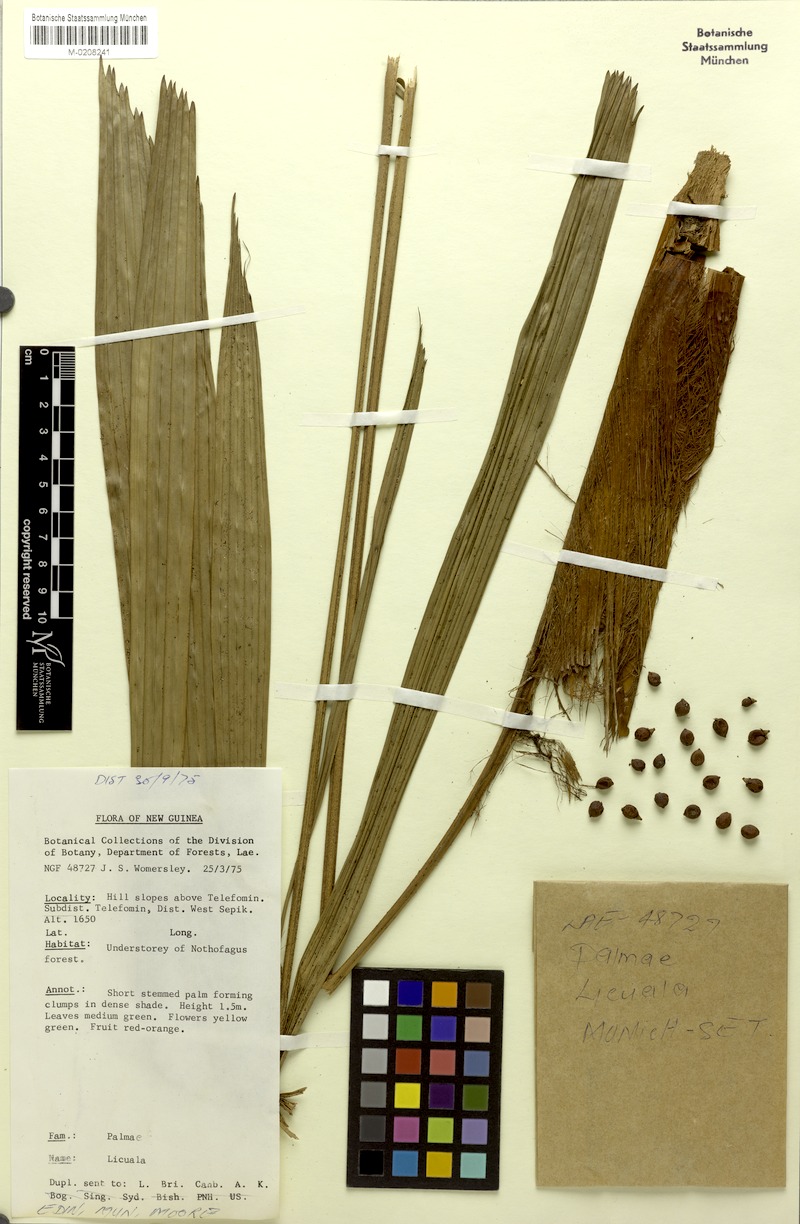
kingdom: Plantae
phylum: Tracheophyta
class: Liliopsida
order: Arecales
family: Arecaceae
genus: Licuala
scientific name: Licuala
